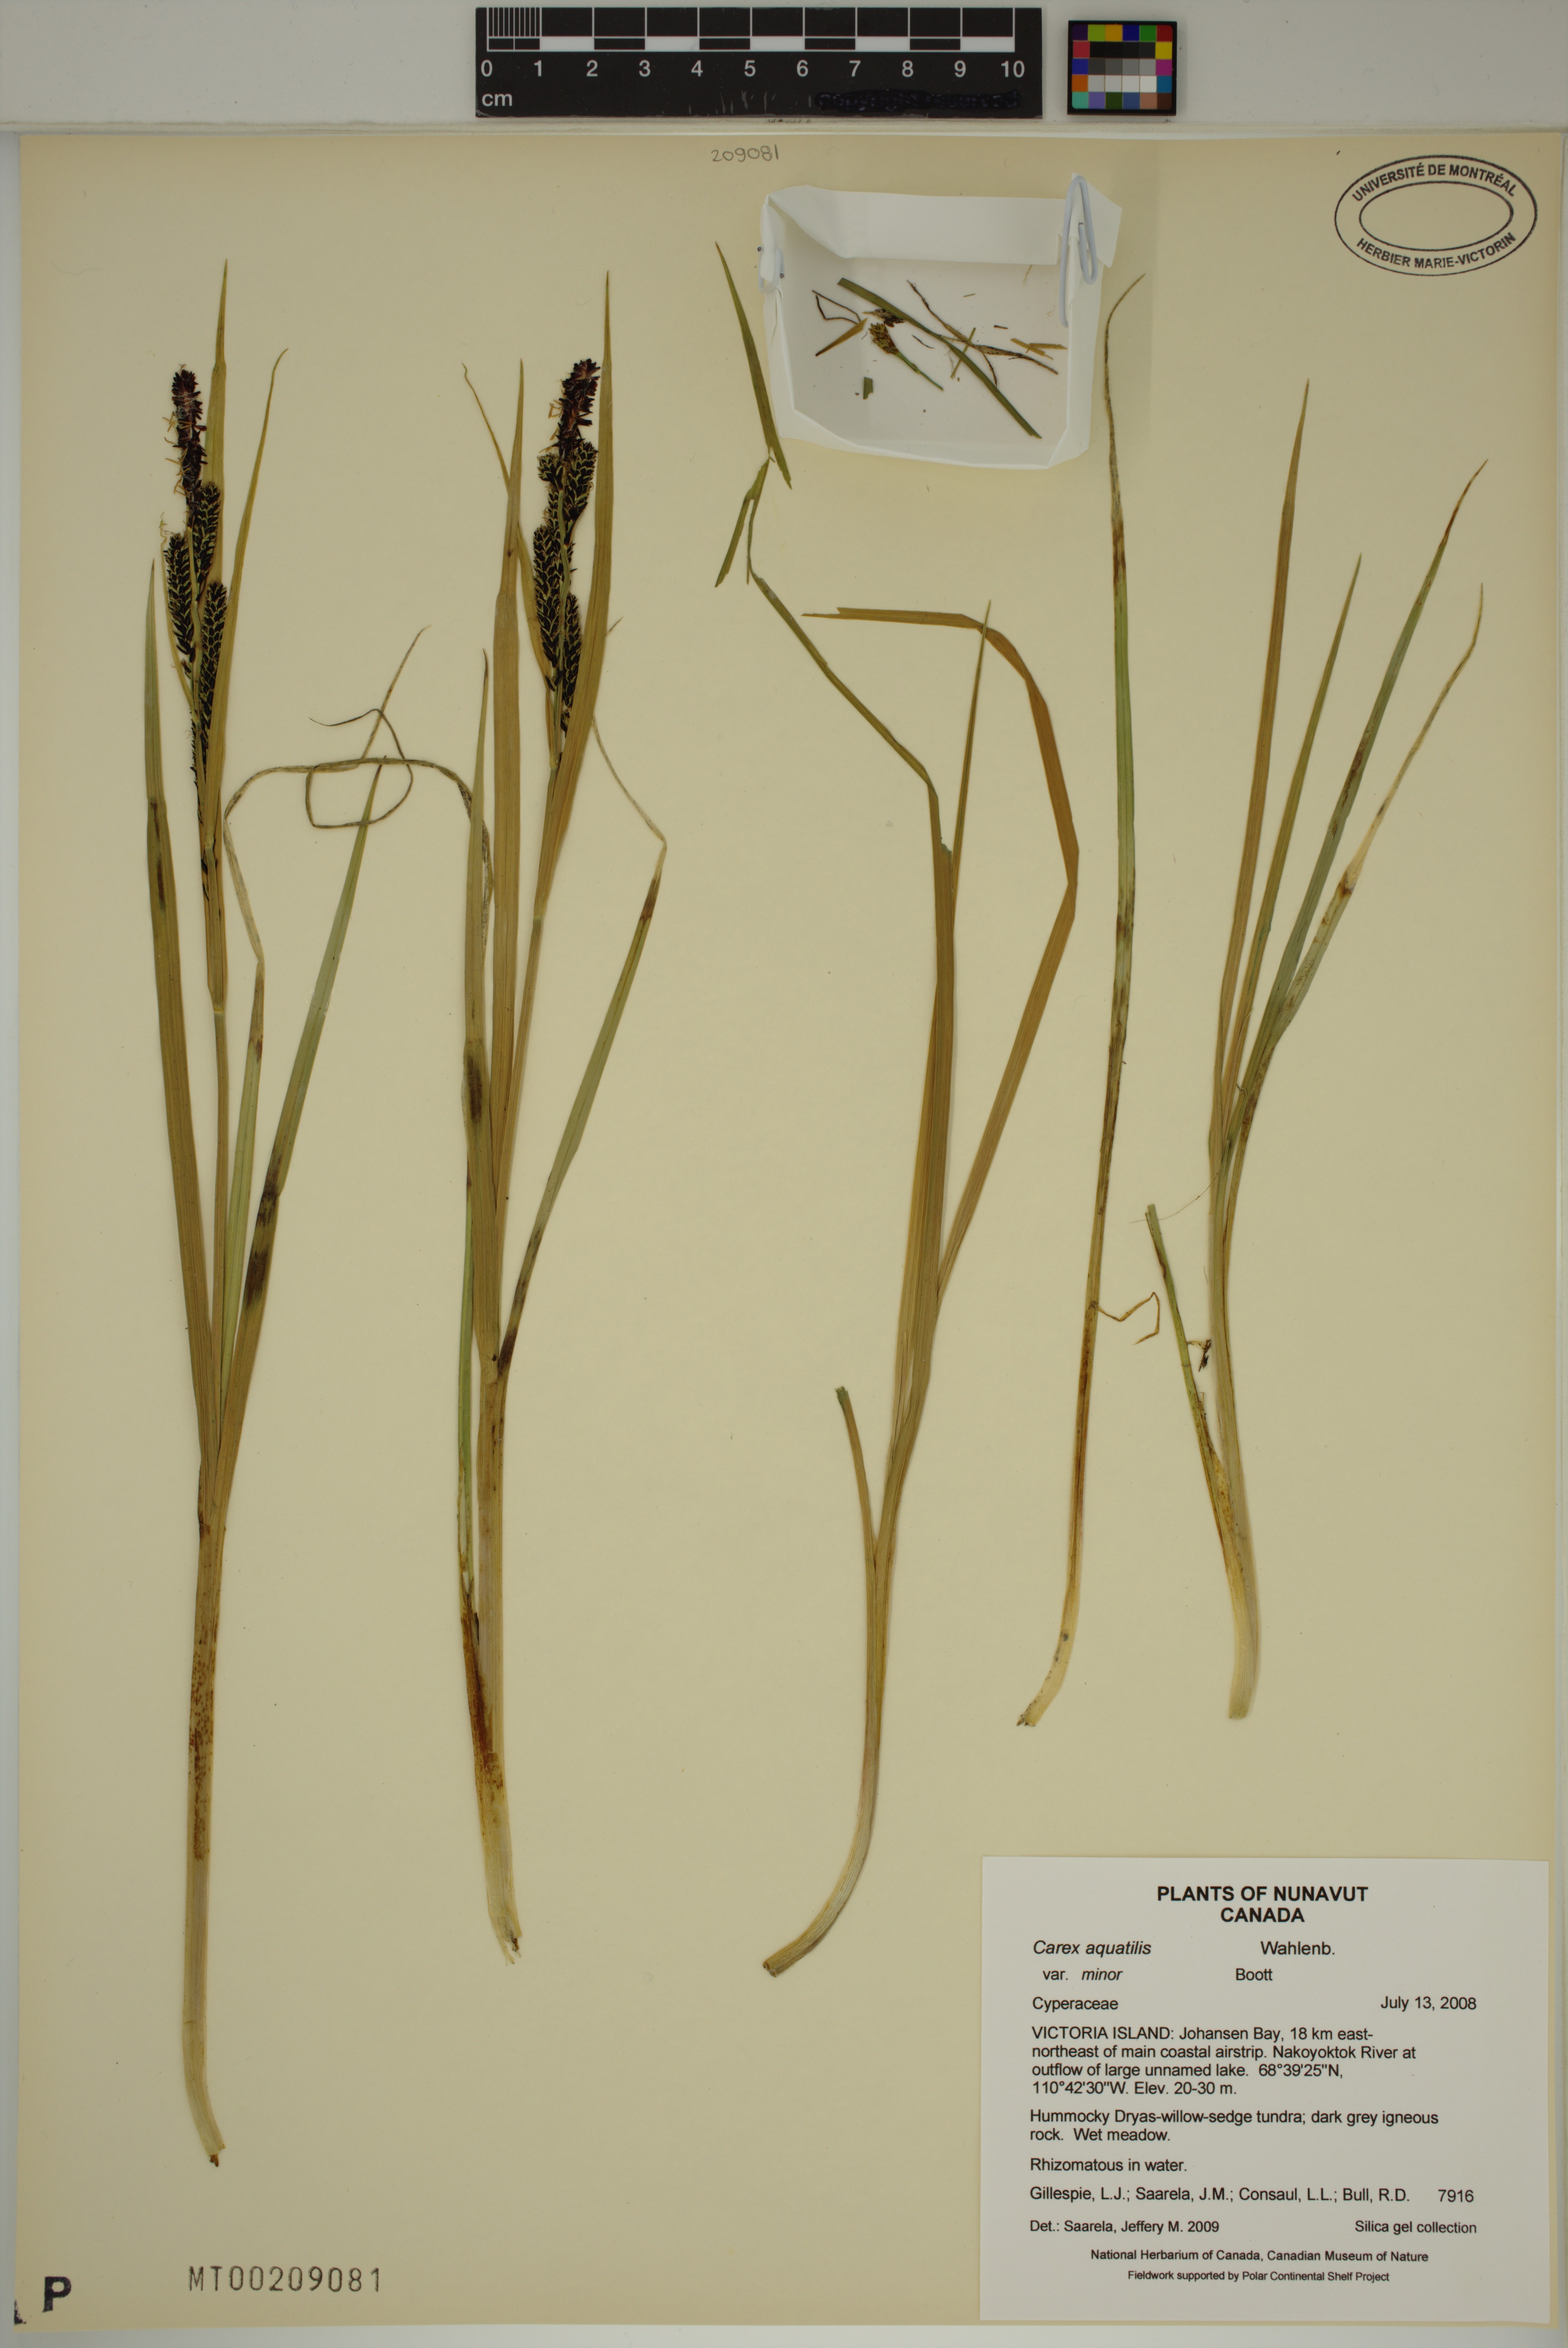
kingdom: Plantae
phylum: Tracheophyta
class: Liliopsida
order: Poales
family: Cyperaceae
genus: Carex
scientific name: Carex aquatilis
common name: Water sedge
